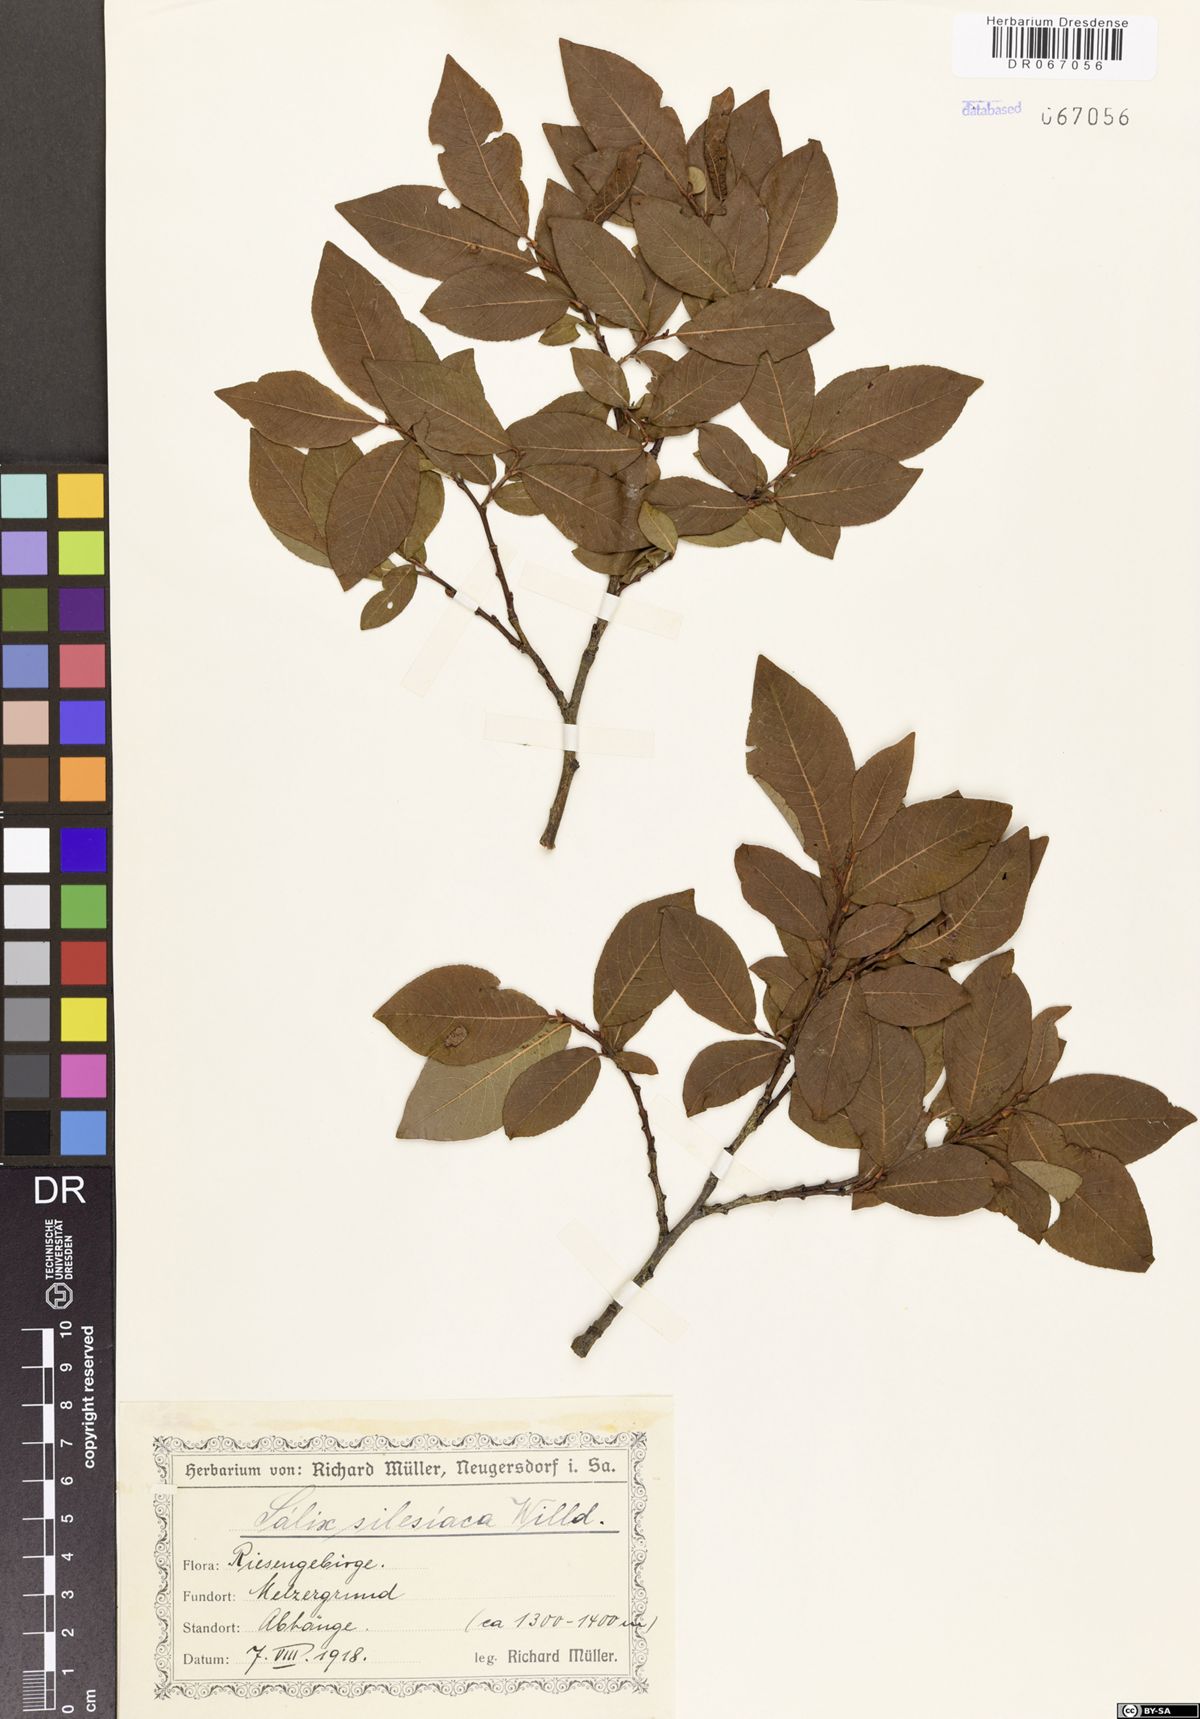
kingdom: Plantae
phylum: Tracheophyta
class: Magnoliopsida
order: Malpighiales
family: Salicaceae
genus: Salix
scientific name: Salix silesiaca
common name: Silesian willow
